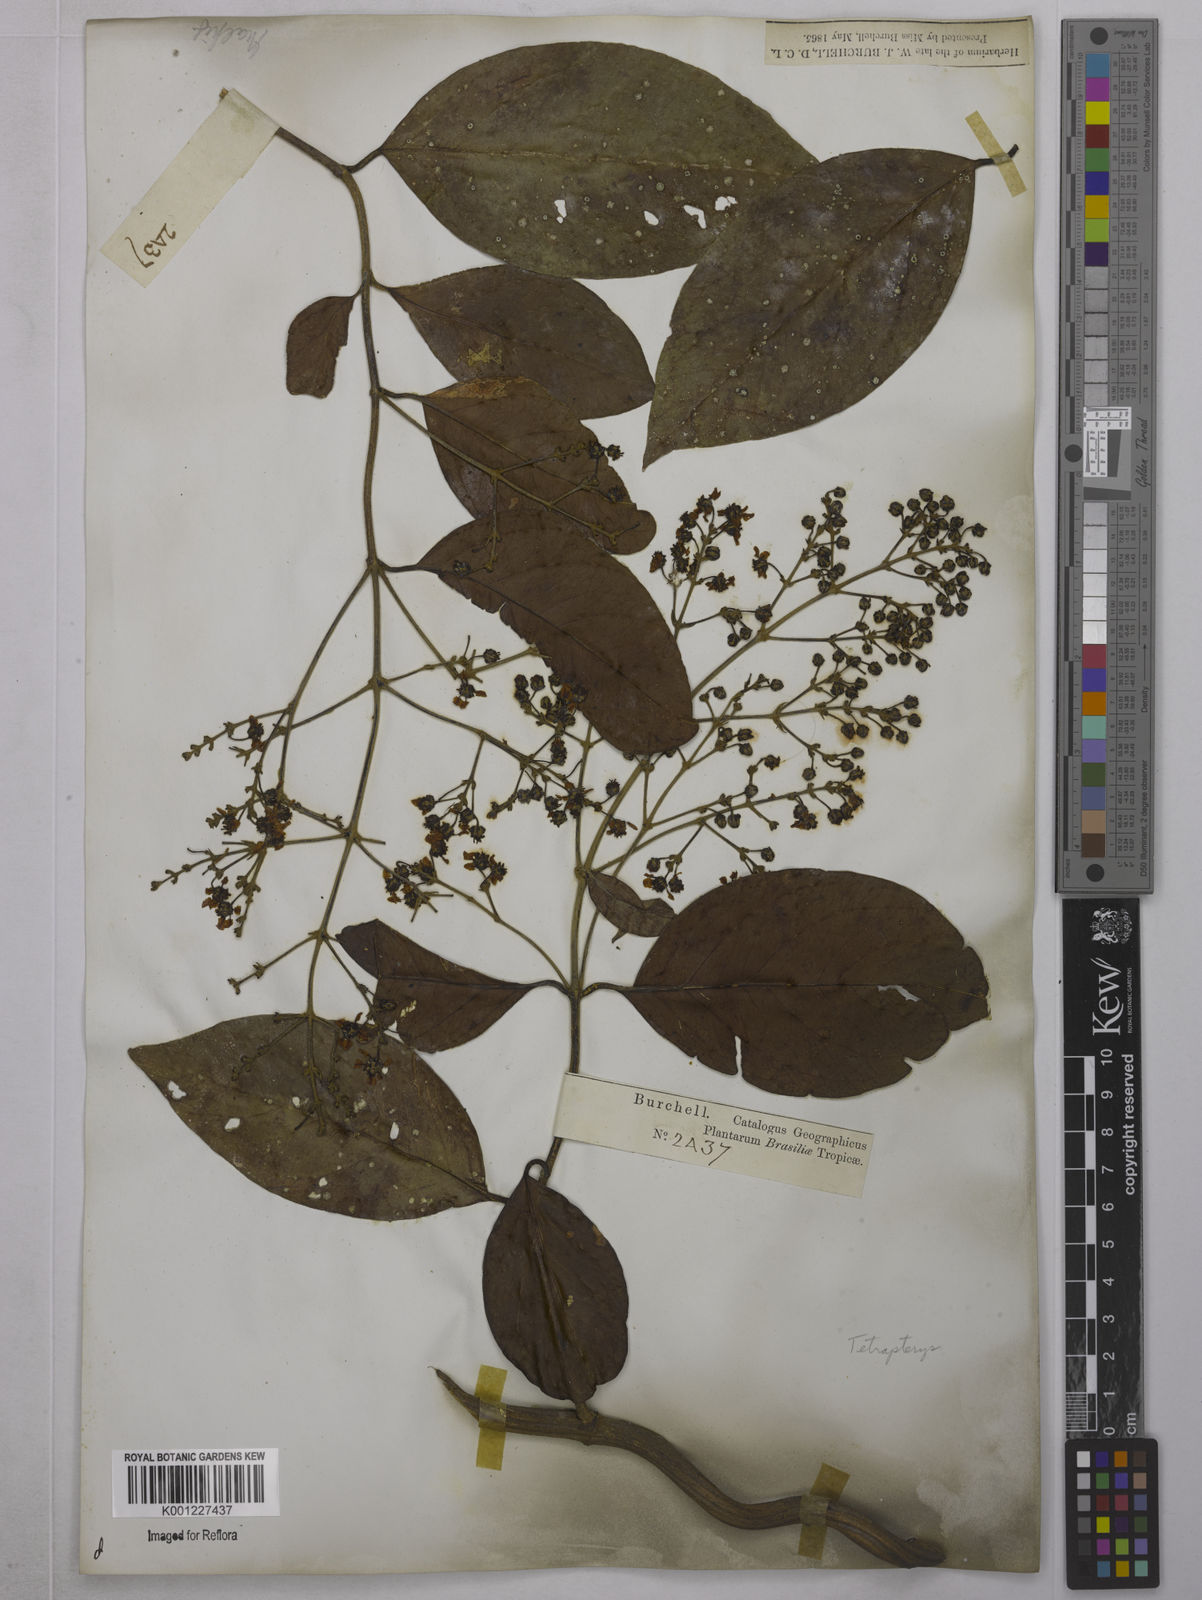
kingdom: Plantae
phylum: Tracheophyta
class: Magnoliopsida
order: Malpighiales
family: Malpighiaceae
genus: Tetrapterys
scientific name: Tetrapterys
